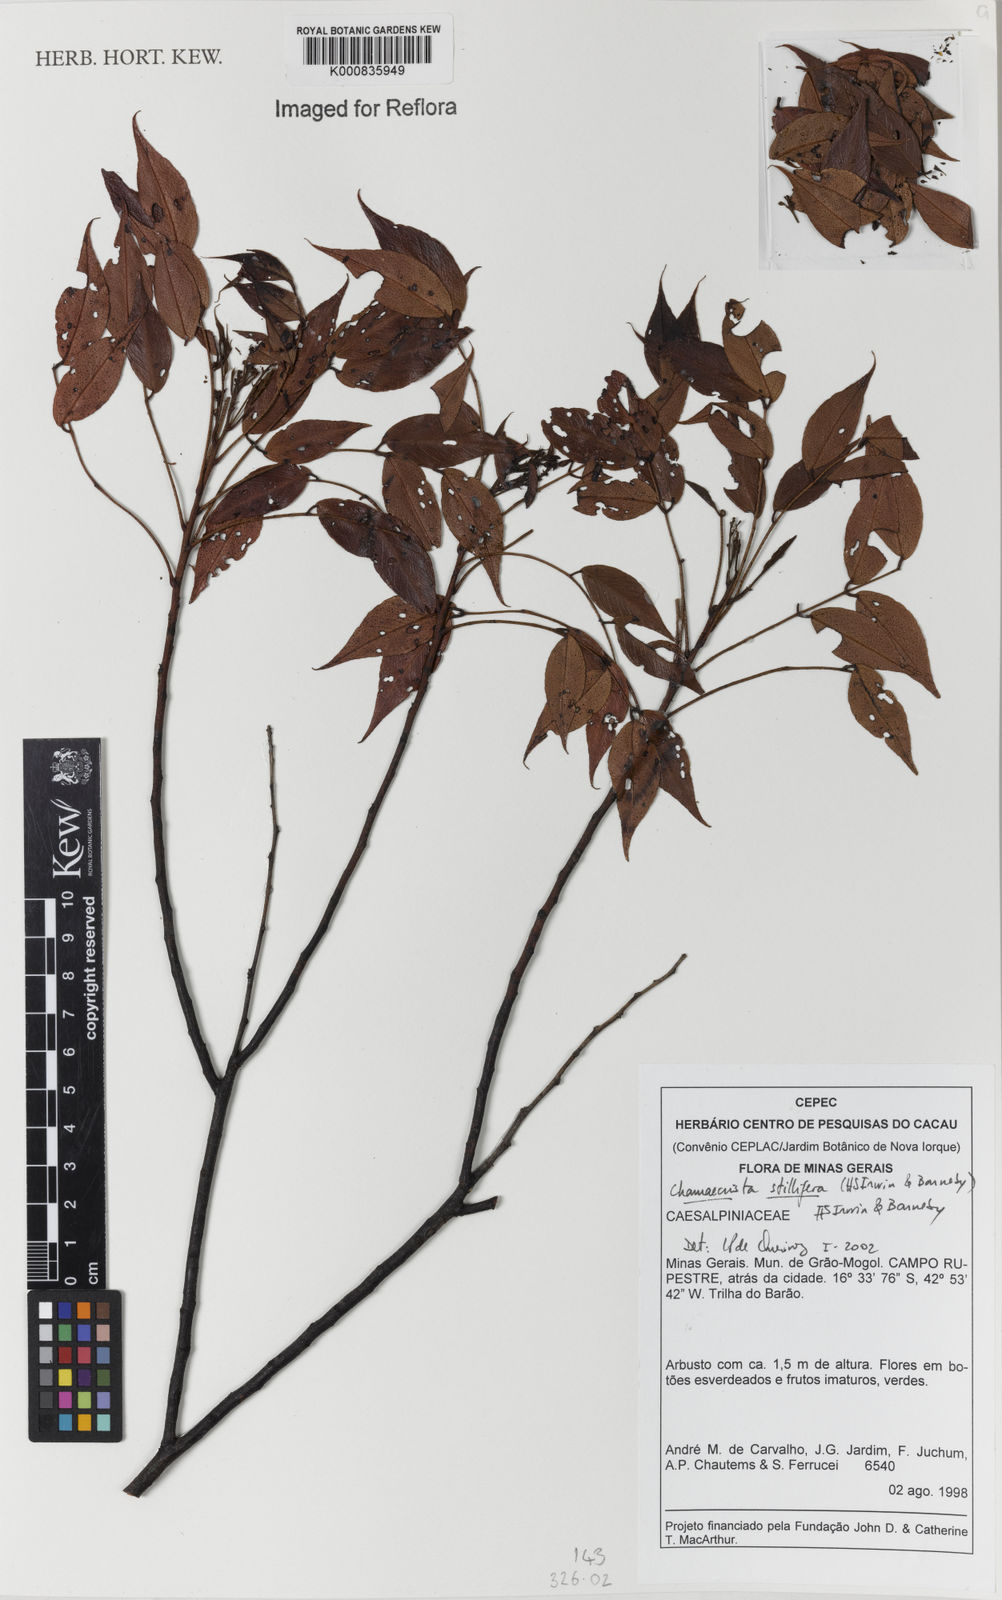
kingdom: Plantae
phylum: Tracheophyta
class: Magnoliopsida
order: Fabales
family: Fabaceae
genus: Chamaecrista
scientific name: Chamaecrista stillifera
